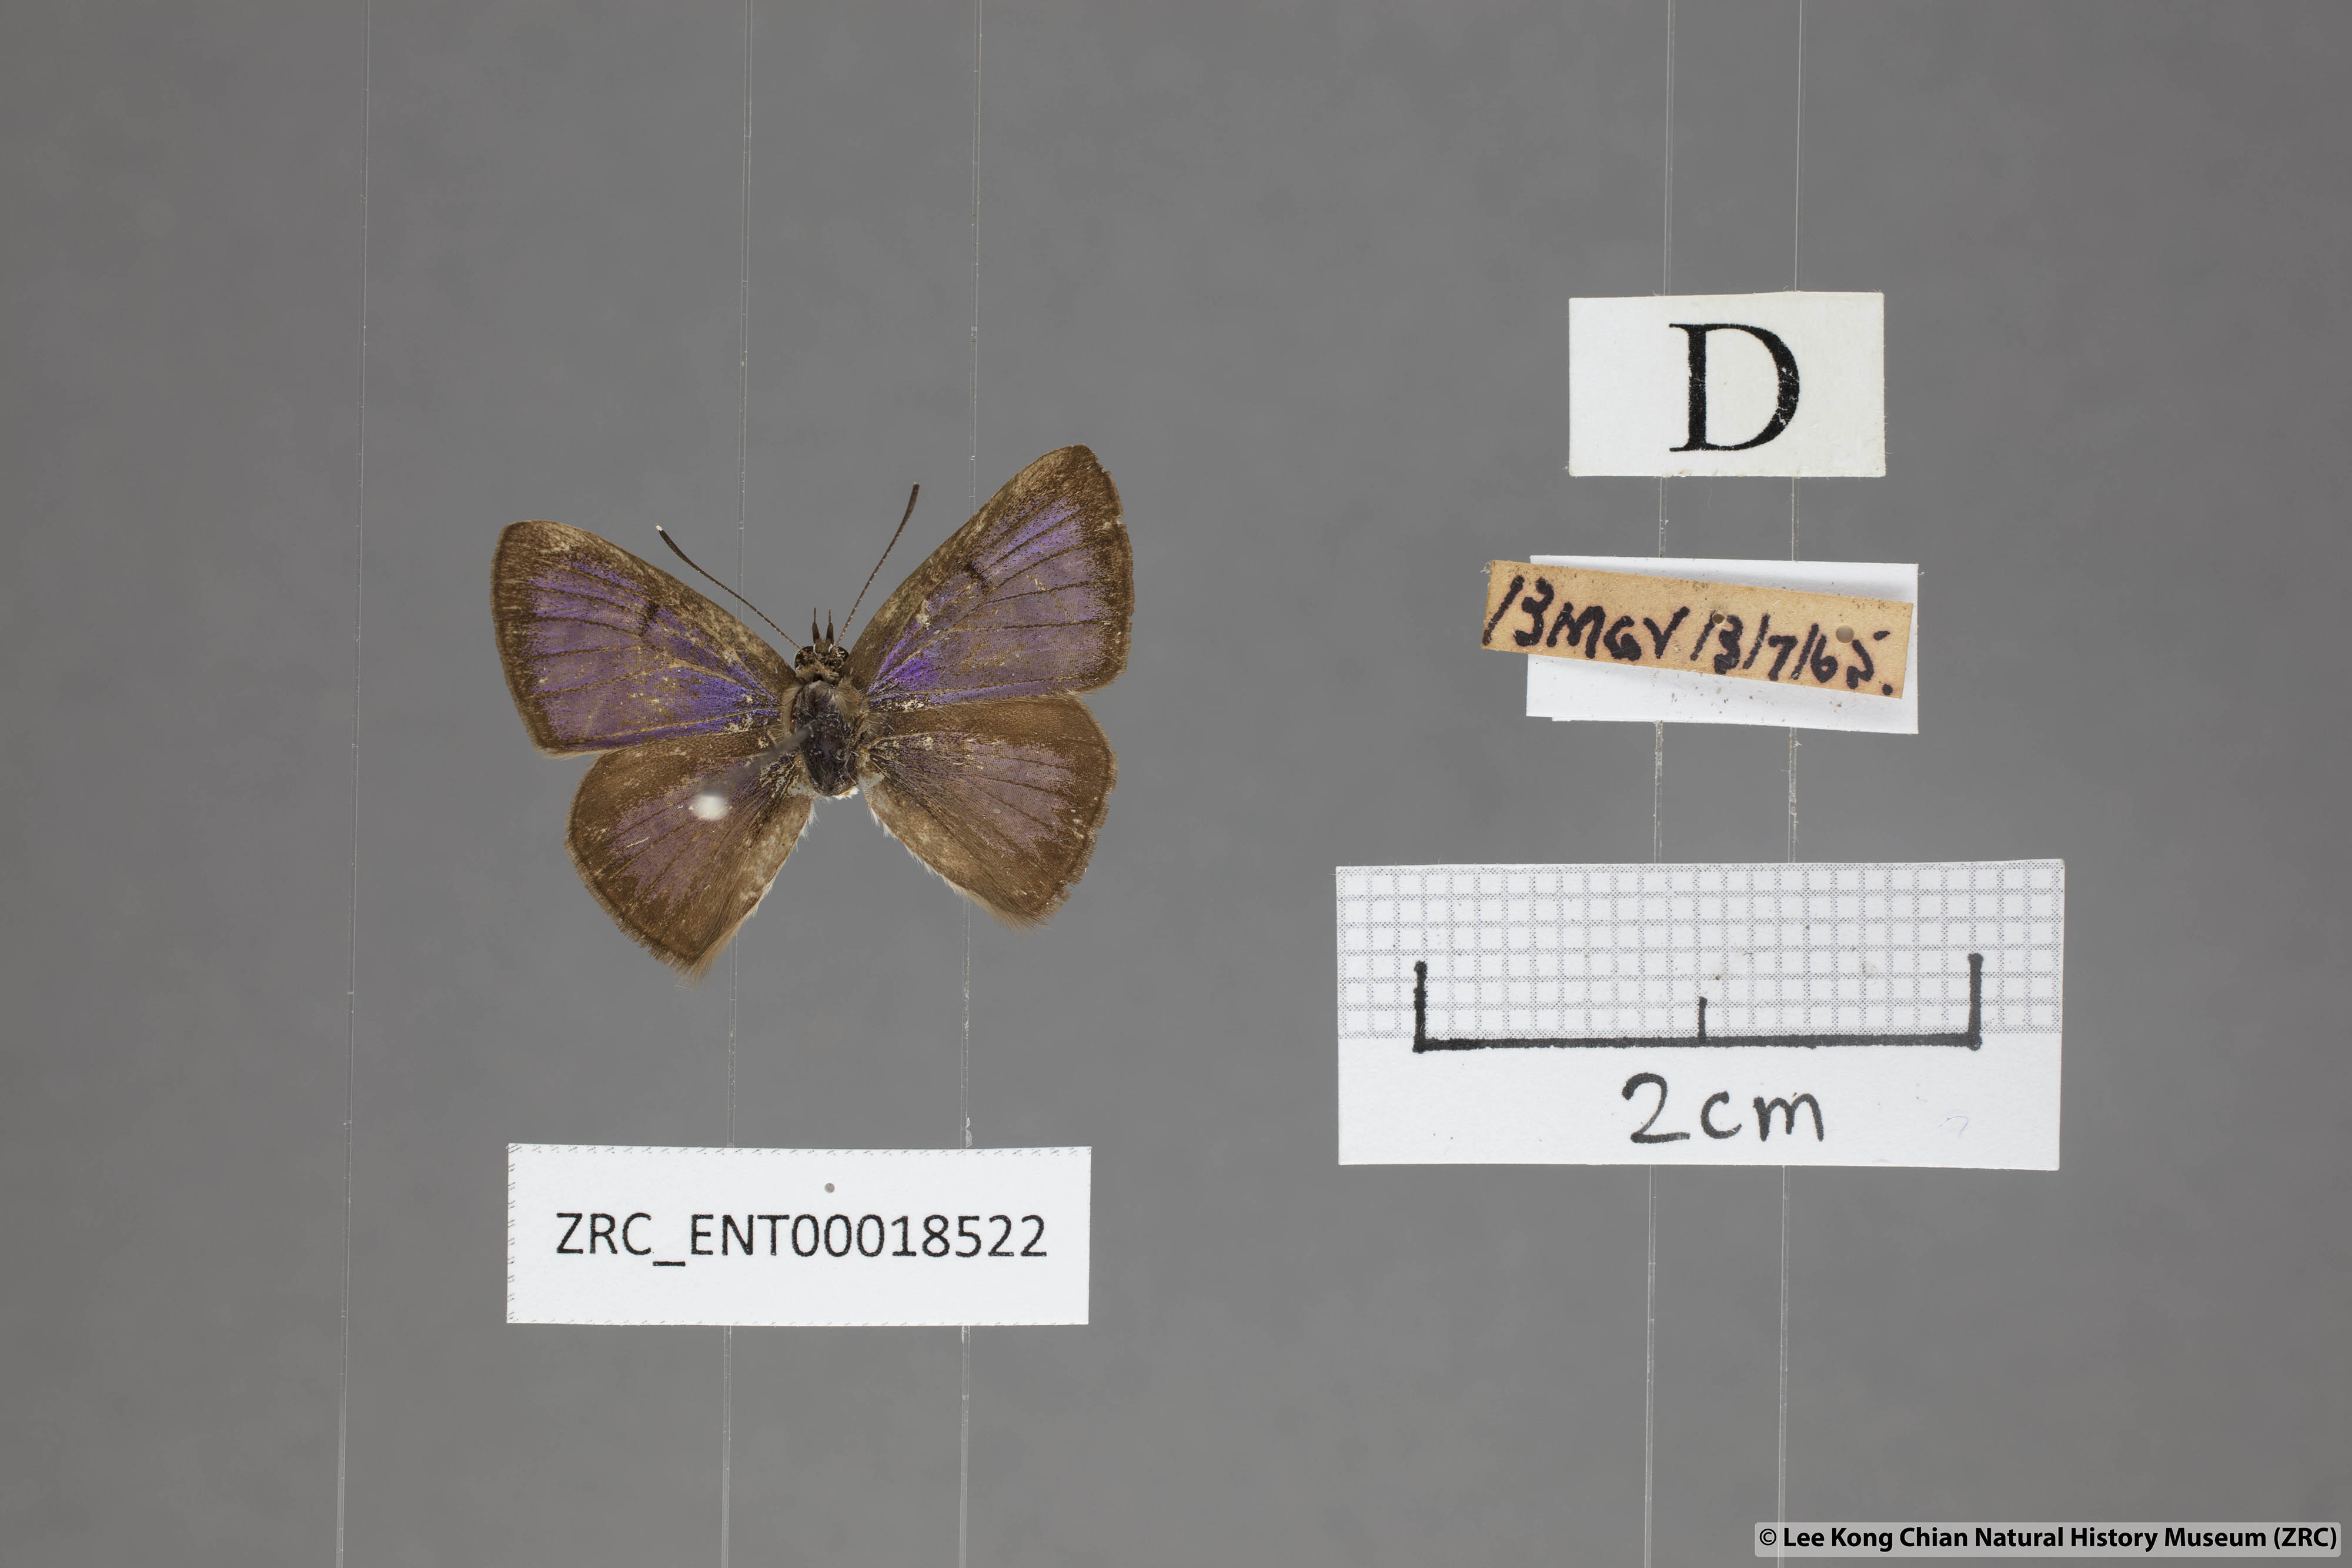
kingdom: Animalia
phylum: Arthropoda
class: Insecta
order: Lepidoptera
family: Lycaenidae
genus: Niphanda
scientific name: Niphanda cymbia
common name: Small pointed pierrot
